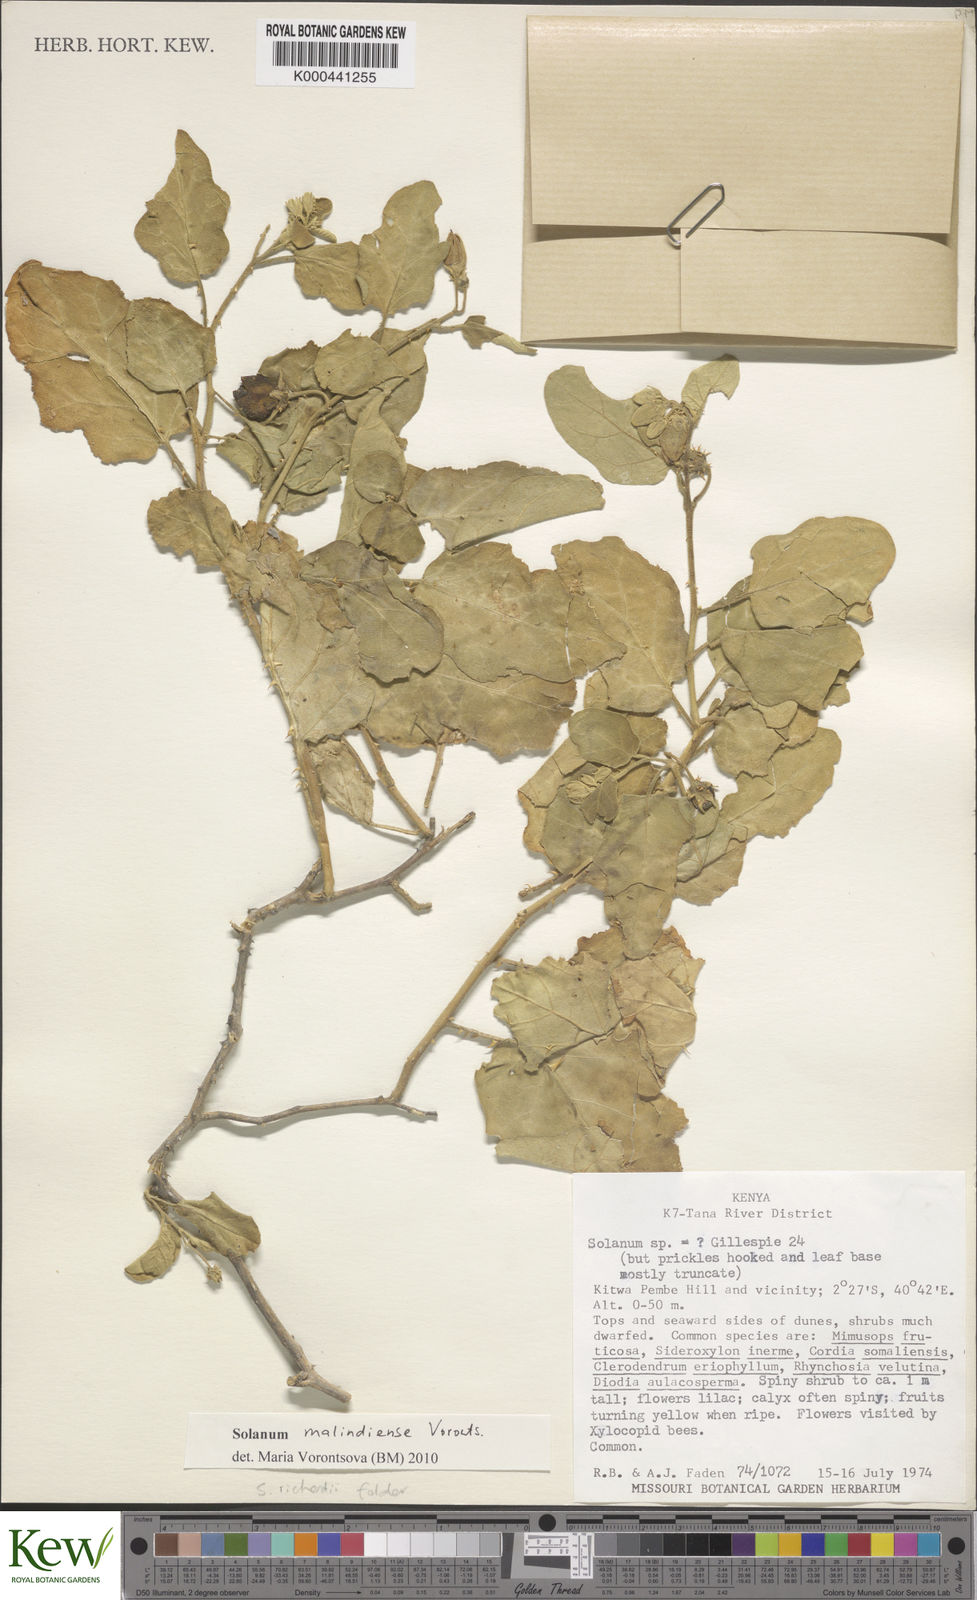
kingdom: Plantae
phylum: Tracheophyta
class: Magnoliopsida
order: Solanales
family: Solanaceae
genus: Solanum
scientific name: Solanum malindiense
